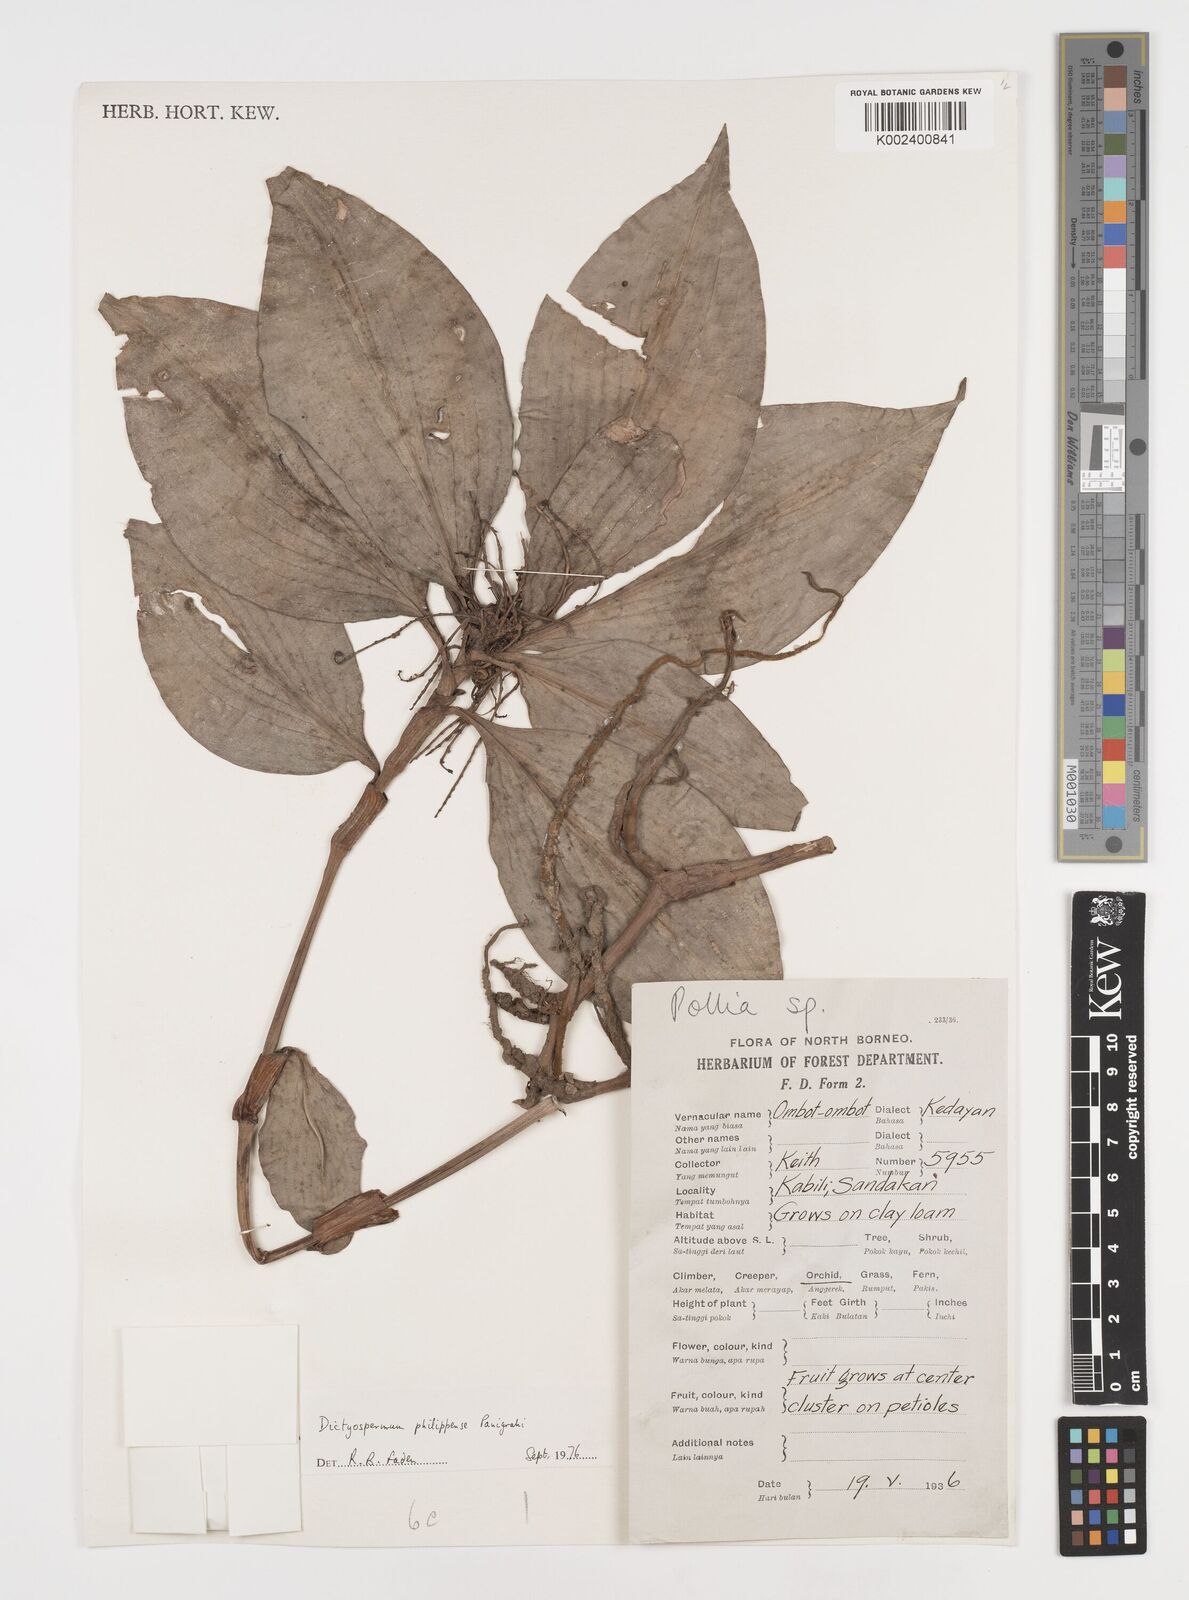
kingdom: Plantae
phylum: Tracheophyta
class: Liliopsida
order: Commelinales
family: Commelinaceae
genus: Tricarpelema
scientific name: Tricarpelema philippense
